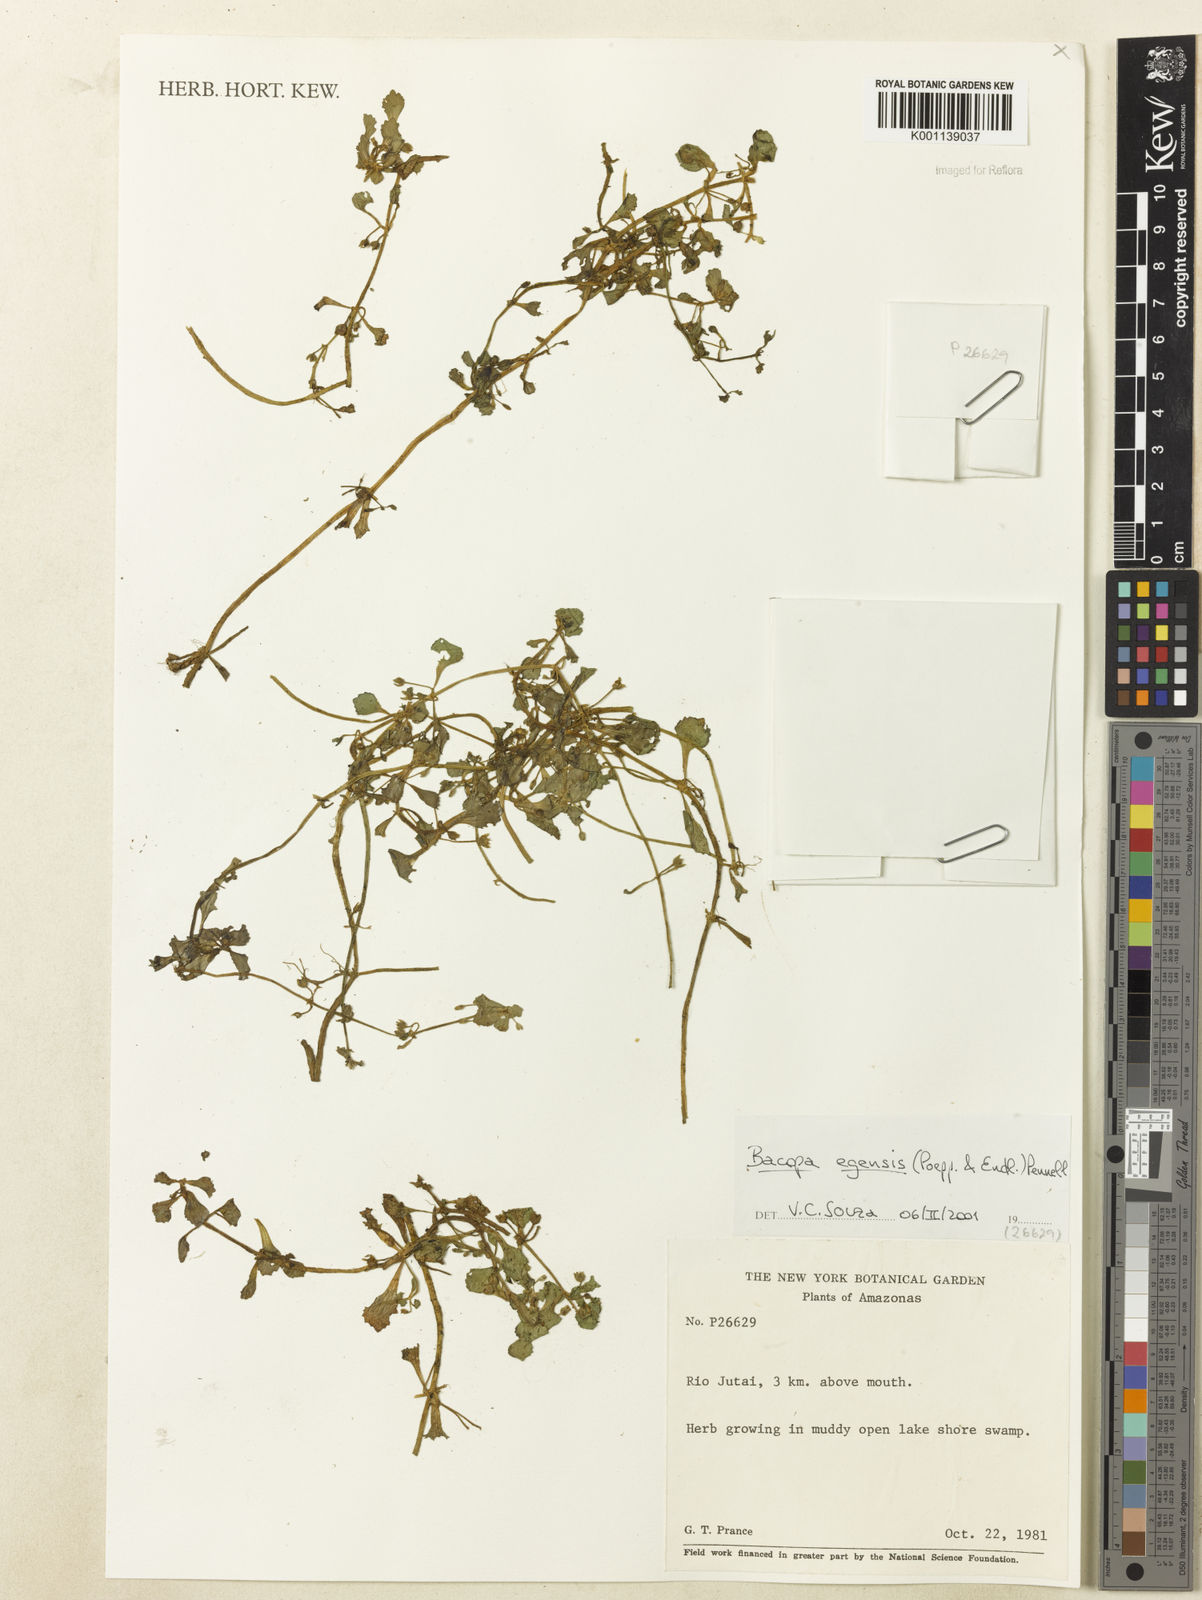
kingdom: Plantae
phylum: Tracheophyta
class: Magnoliopsida
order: Lamiales
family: Plantaginaceae
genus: Bacopa
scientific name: Bacopa egensis
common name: Brazilian waterhyssop
